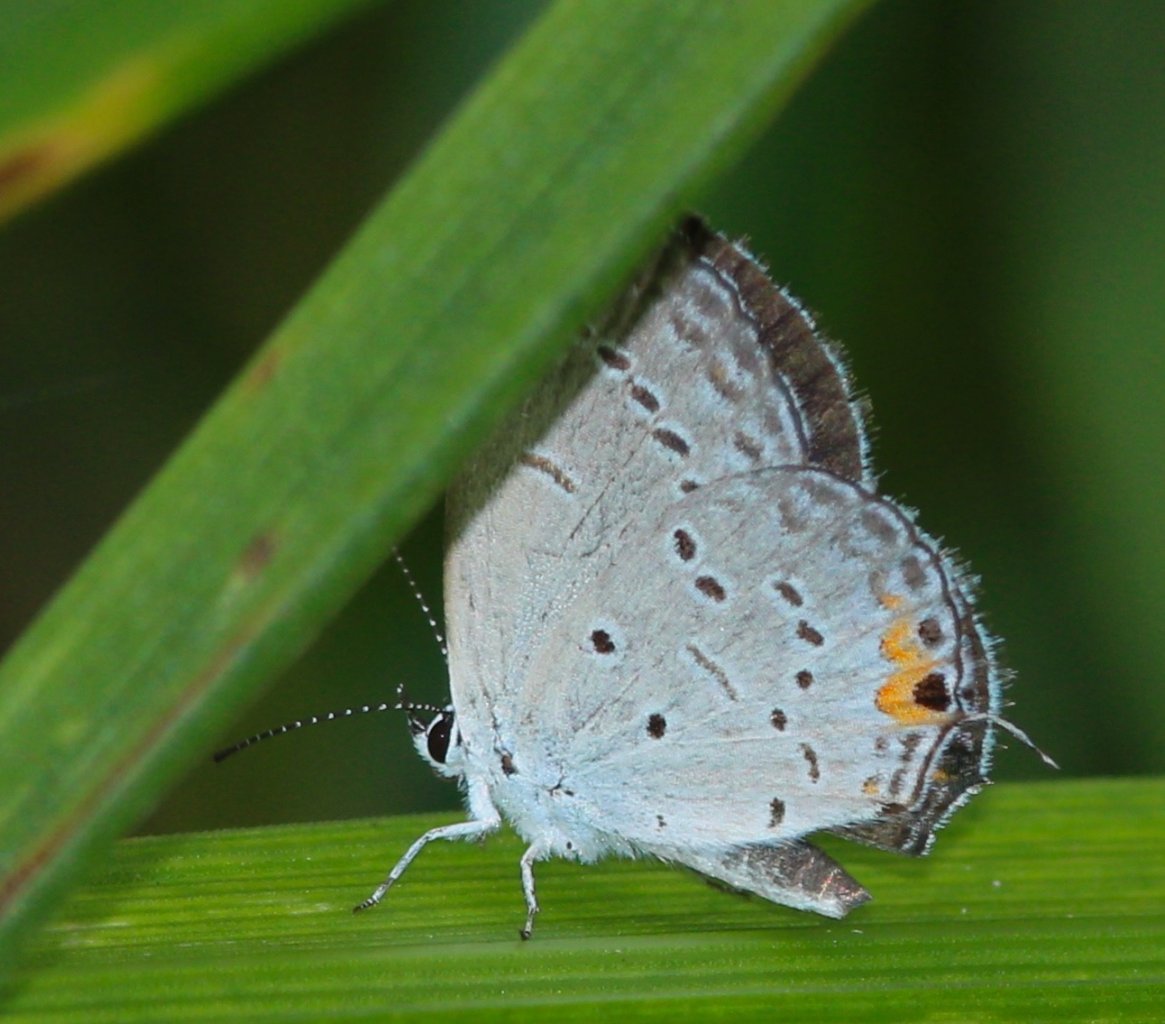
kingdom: Animalia
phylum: Arthropoda
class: Insecta
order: Lepidoptera
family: Lycaenidae
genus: Elkalyce
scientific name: Elkalyce comyntas
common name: Eastern Tailed-Blue
